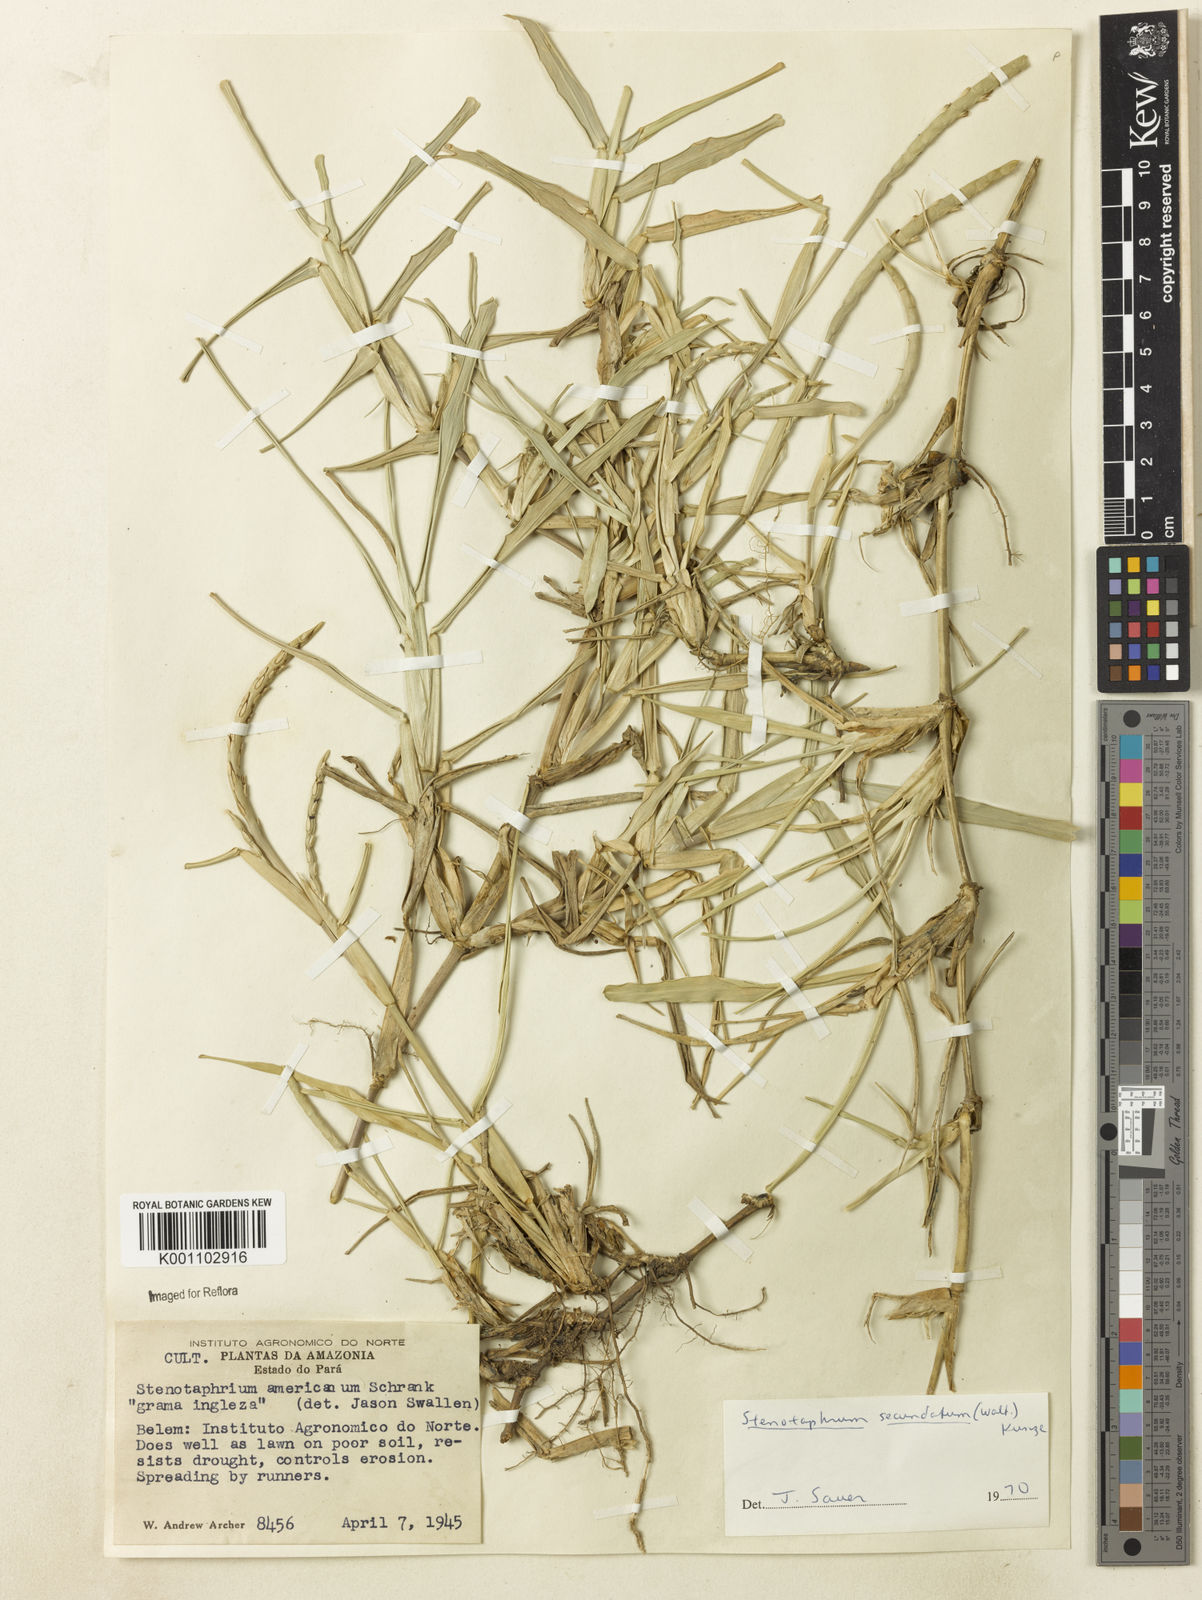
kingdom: Plantae
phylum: Tracheophyta
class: Liliopsida
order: Poales
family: Poaceae
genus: Stenotaphrum
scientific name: Stenotaphrum secundatum
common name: St. augustine grass
